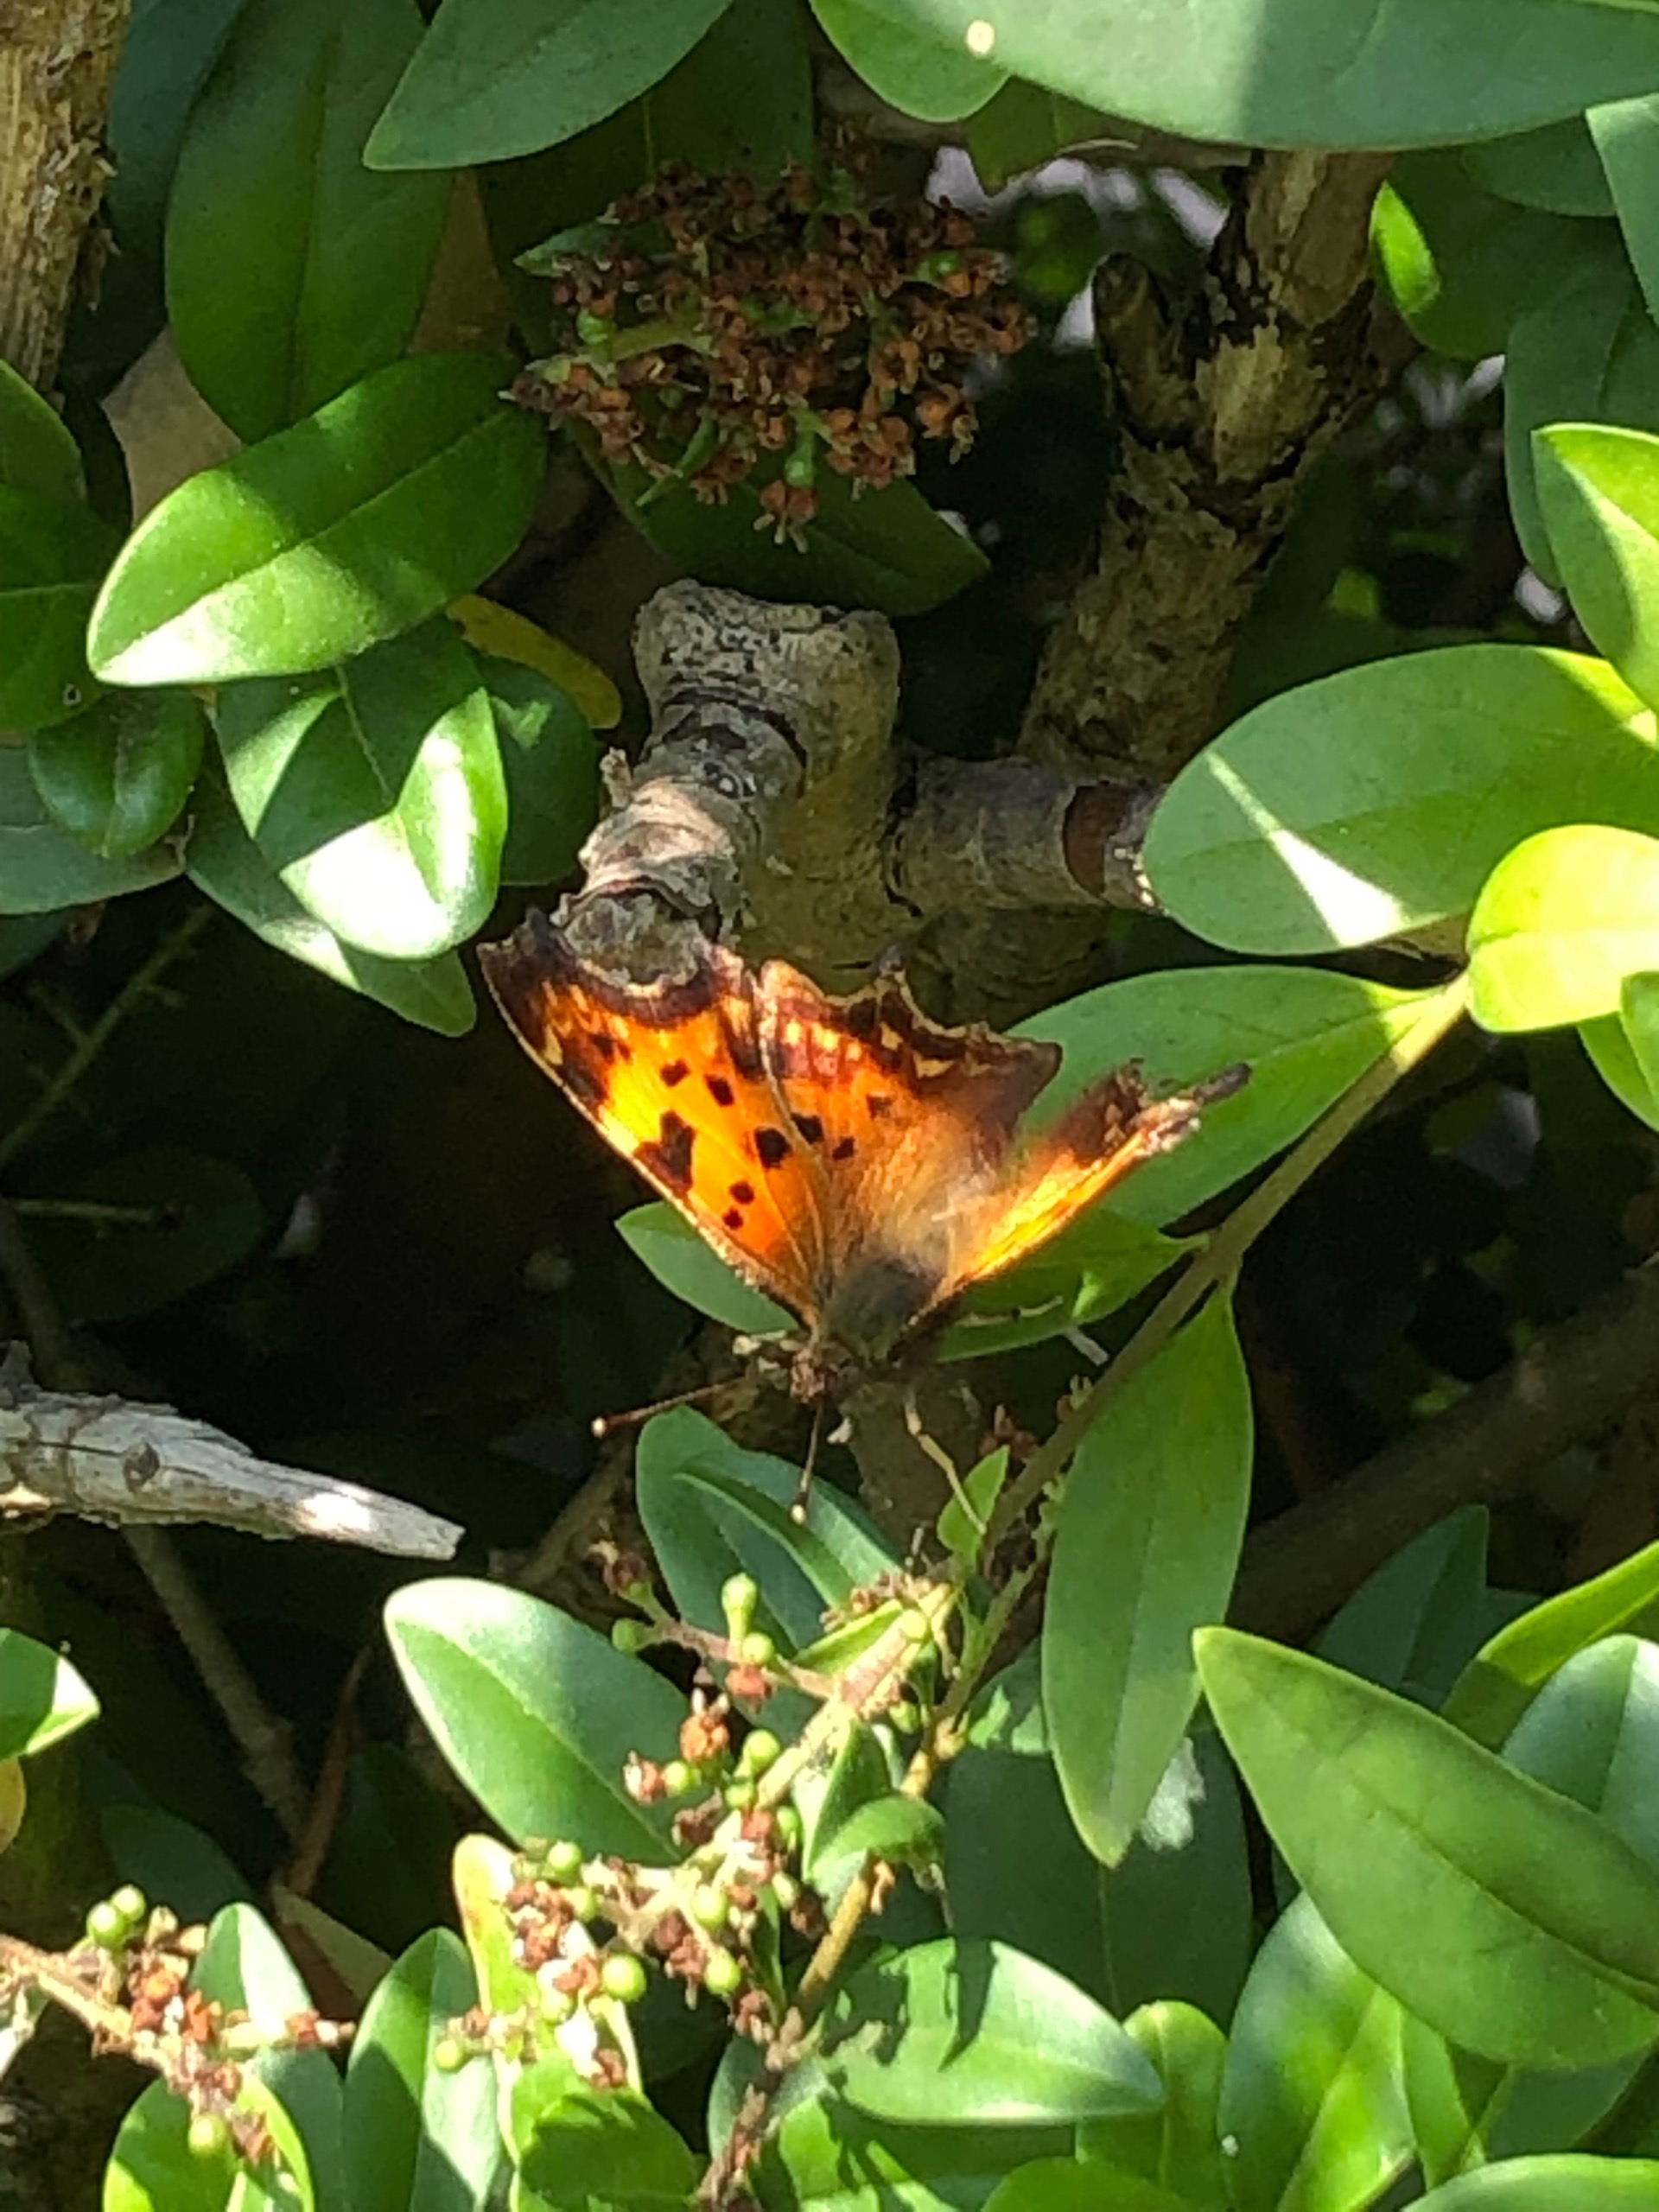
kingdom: Animalia
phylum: Arthropoda
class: Insecta
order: Lepidoptera
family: Nymphalidae
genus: Polygonia
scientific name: Polygonia c-album
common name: Det hvide C
